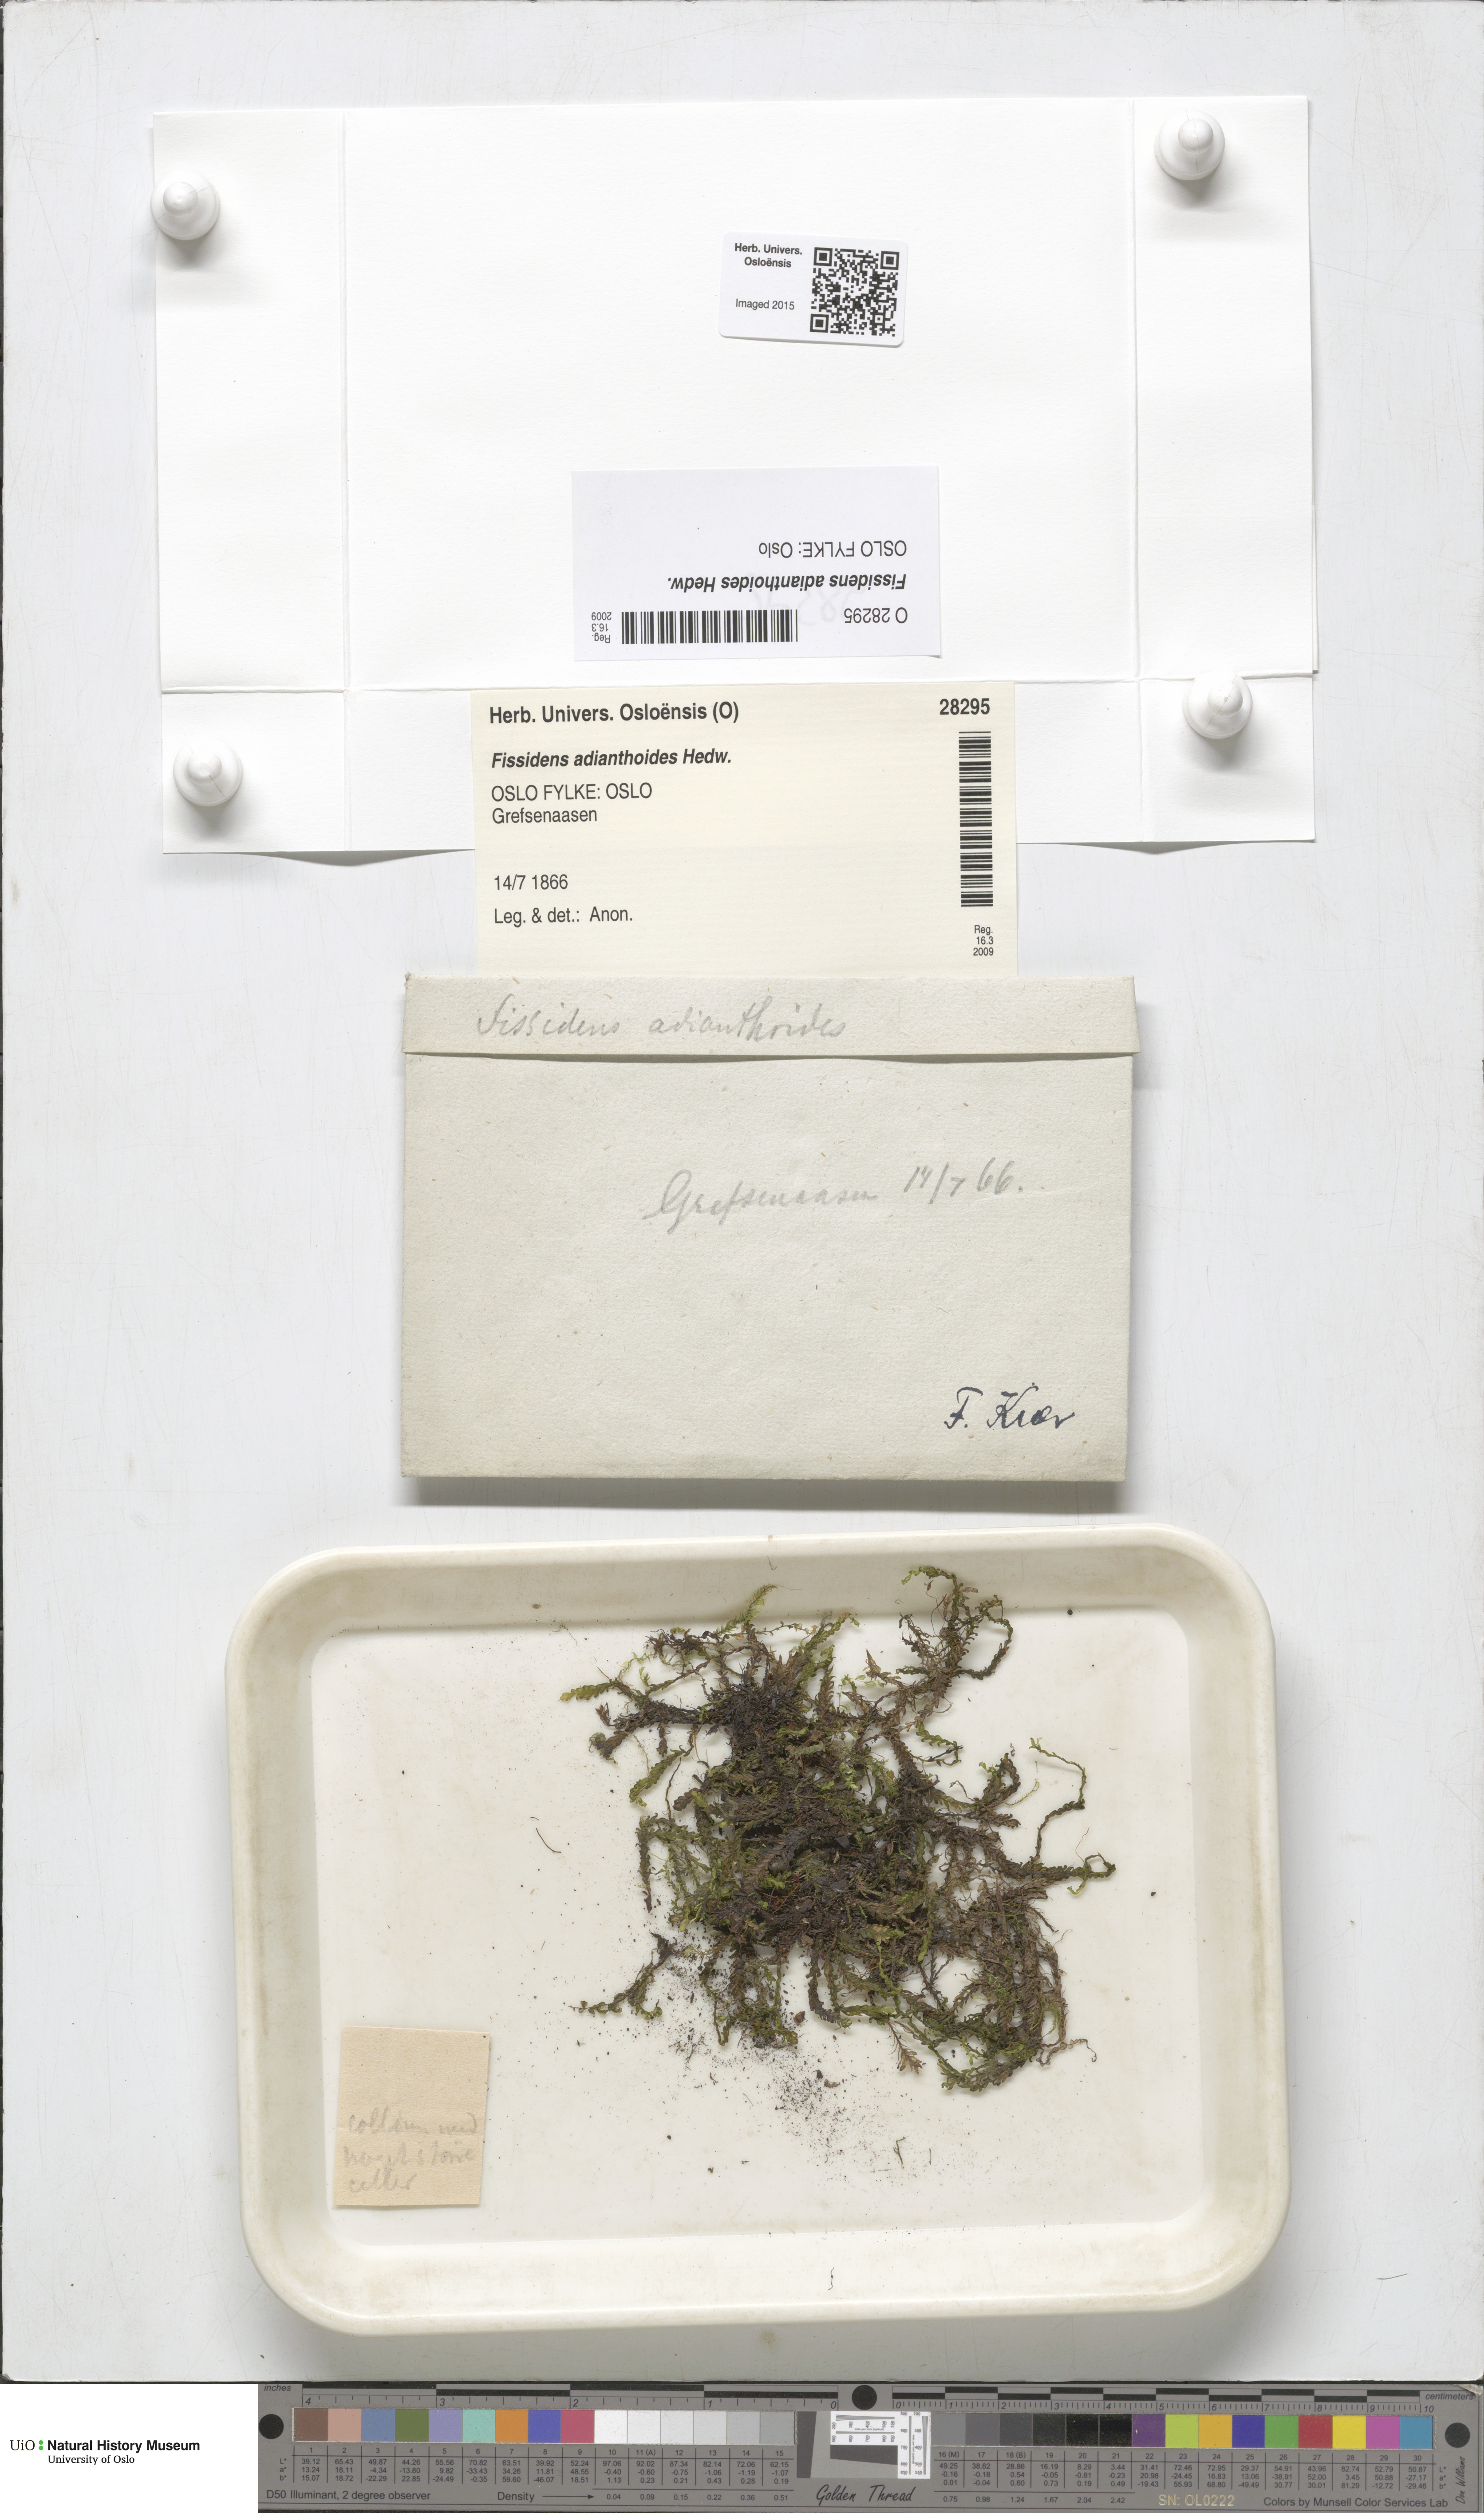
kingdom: Plantae
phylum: Bryophyta
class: Bryopsida
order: Dicranales
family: Fissidentaceae
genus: Fissidens
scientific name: Fissidens adianthoides
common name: Maidenhair pocket moss
